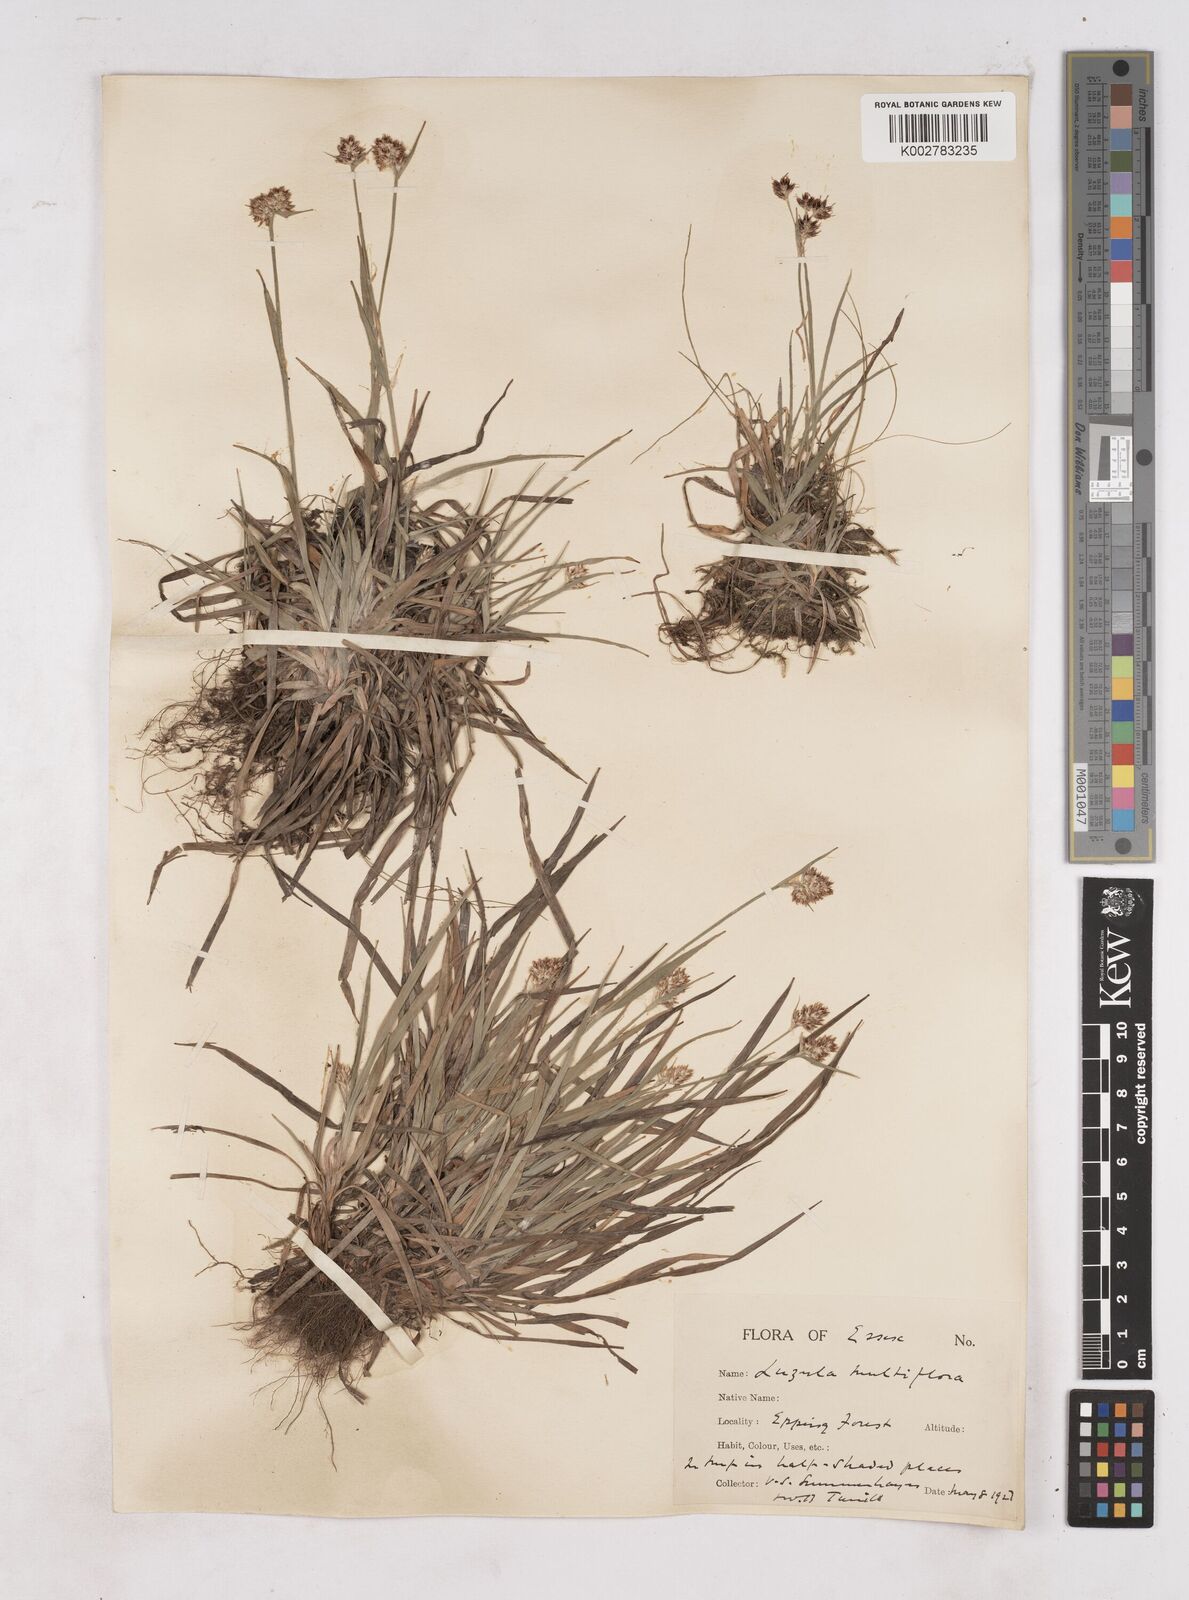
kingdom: Plantae
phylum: Tracheophyta
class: Liliopsida
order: Poales
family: Juncaceae
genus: Luzula
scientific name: Luzula multiflora
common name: Heath wood-rush
